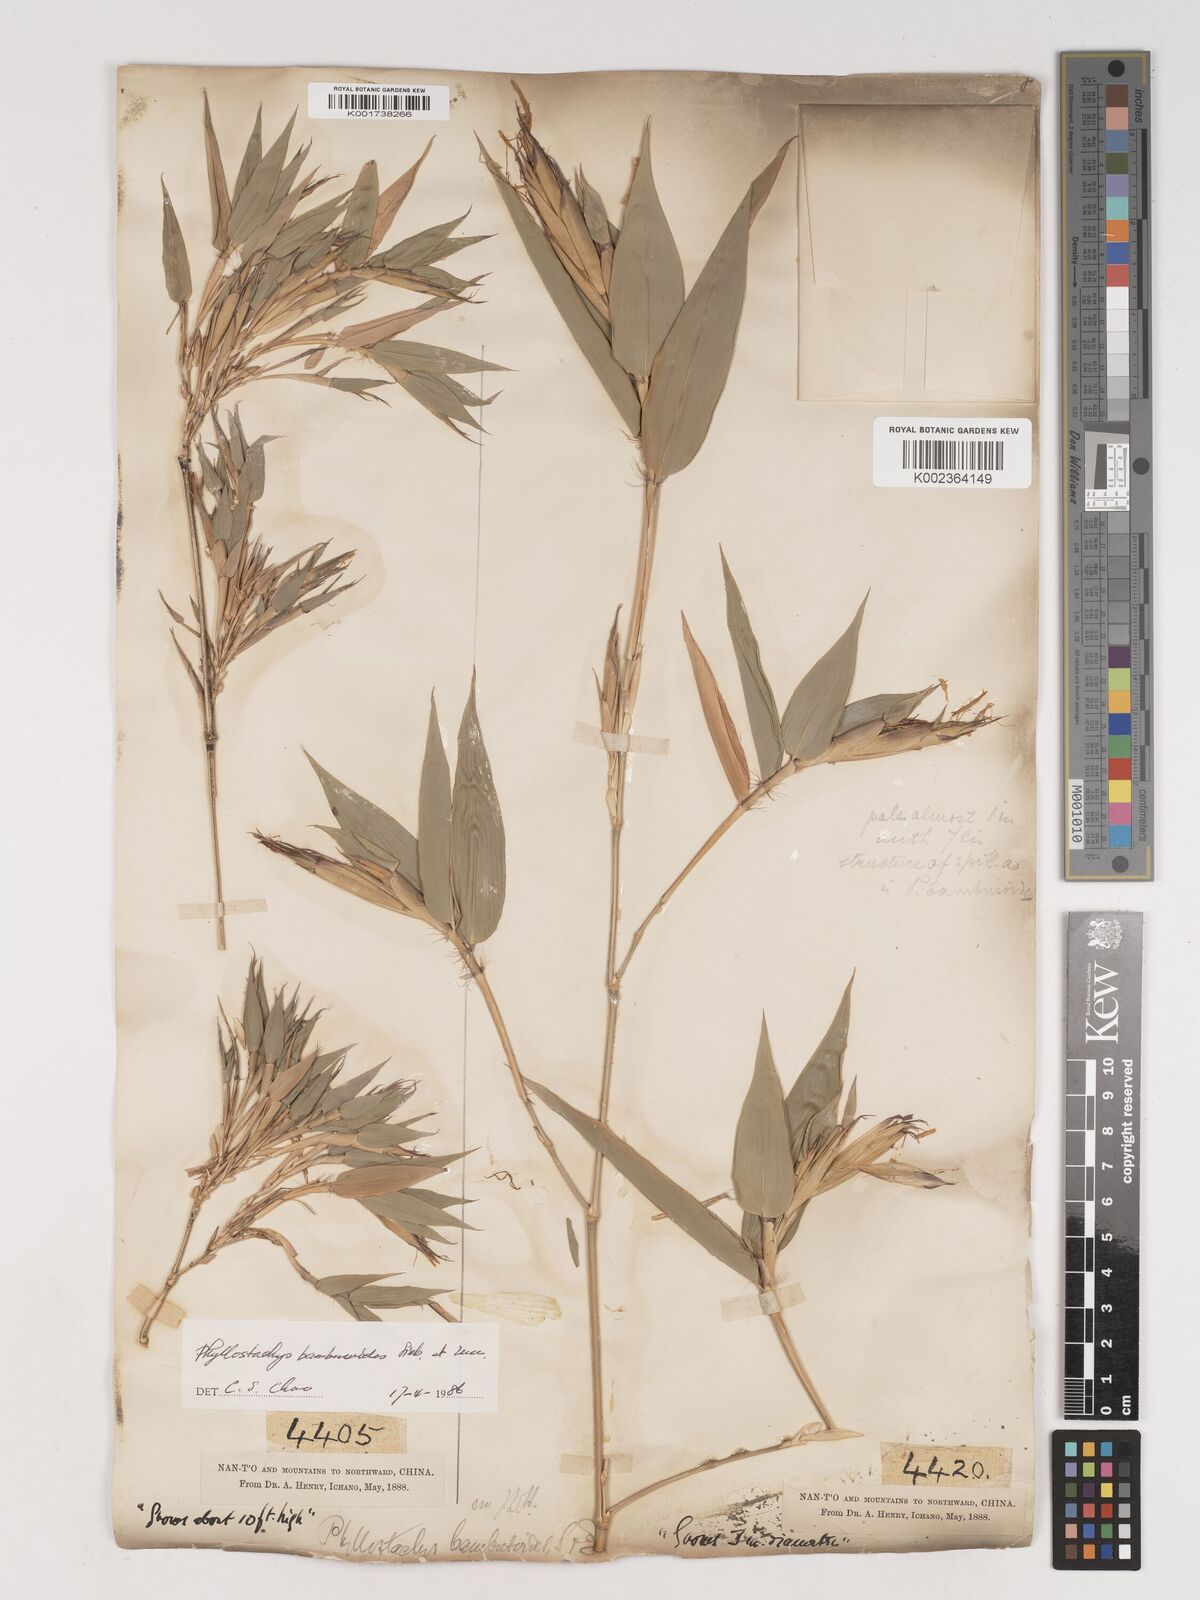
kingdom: Plantae
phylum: Tracheophyta
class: Liliopsida
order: Poales
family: Poaceae
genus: Phyllostachys
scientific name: Phyllostachys reticulata
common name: Bamboo
